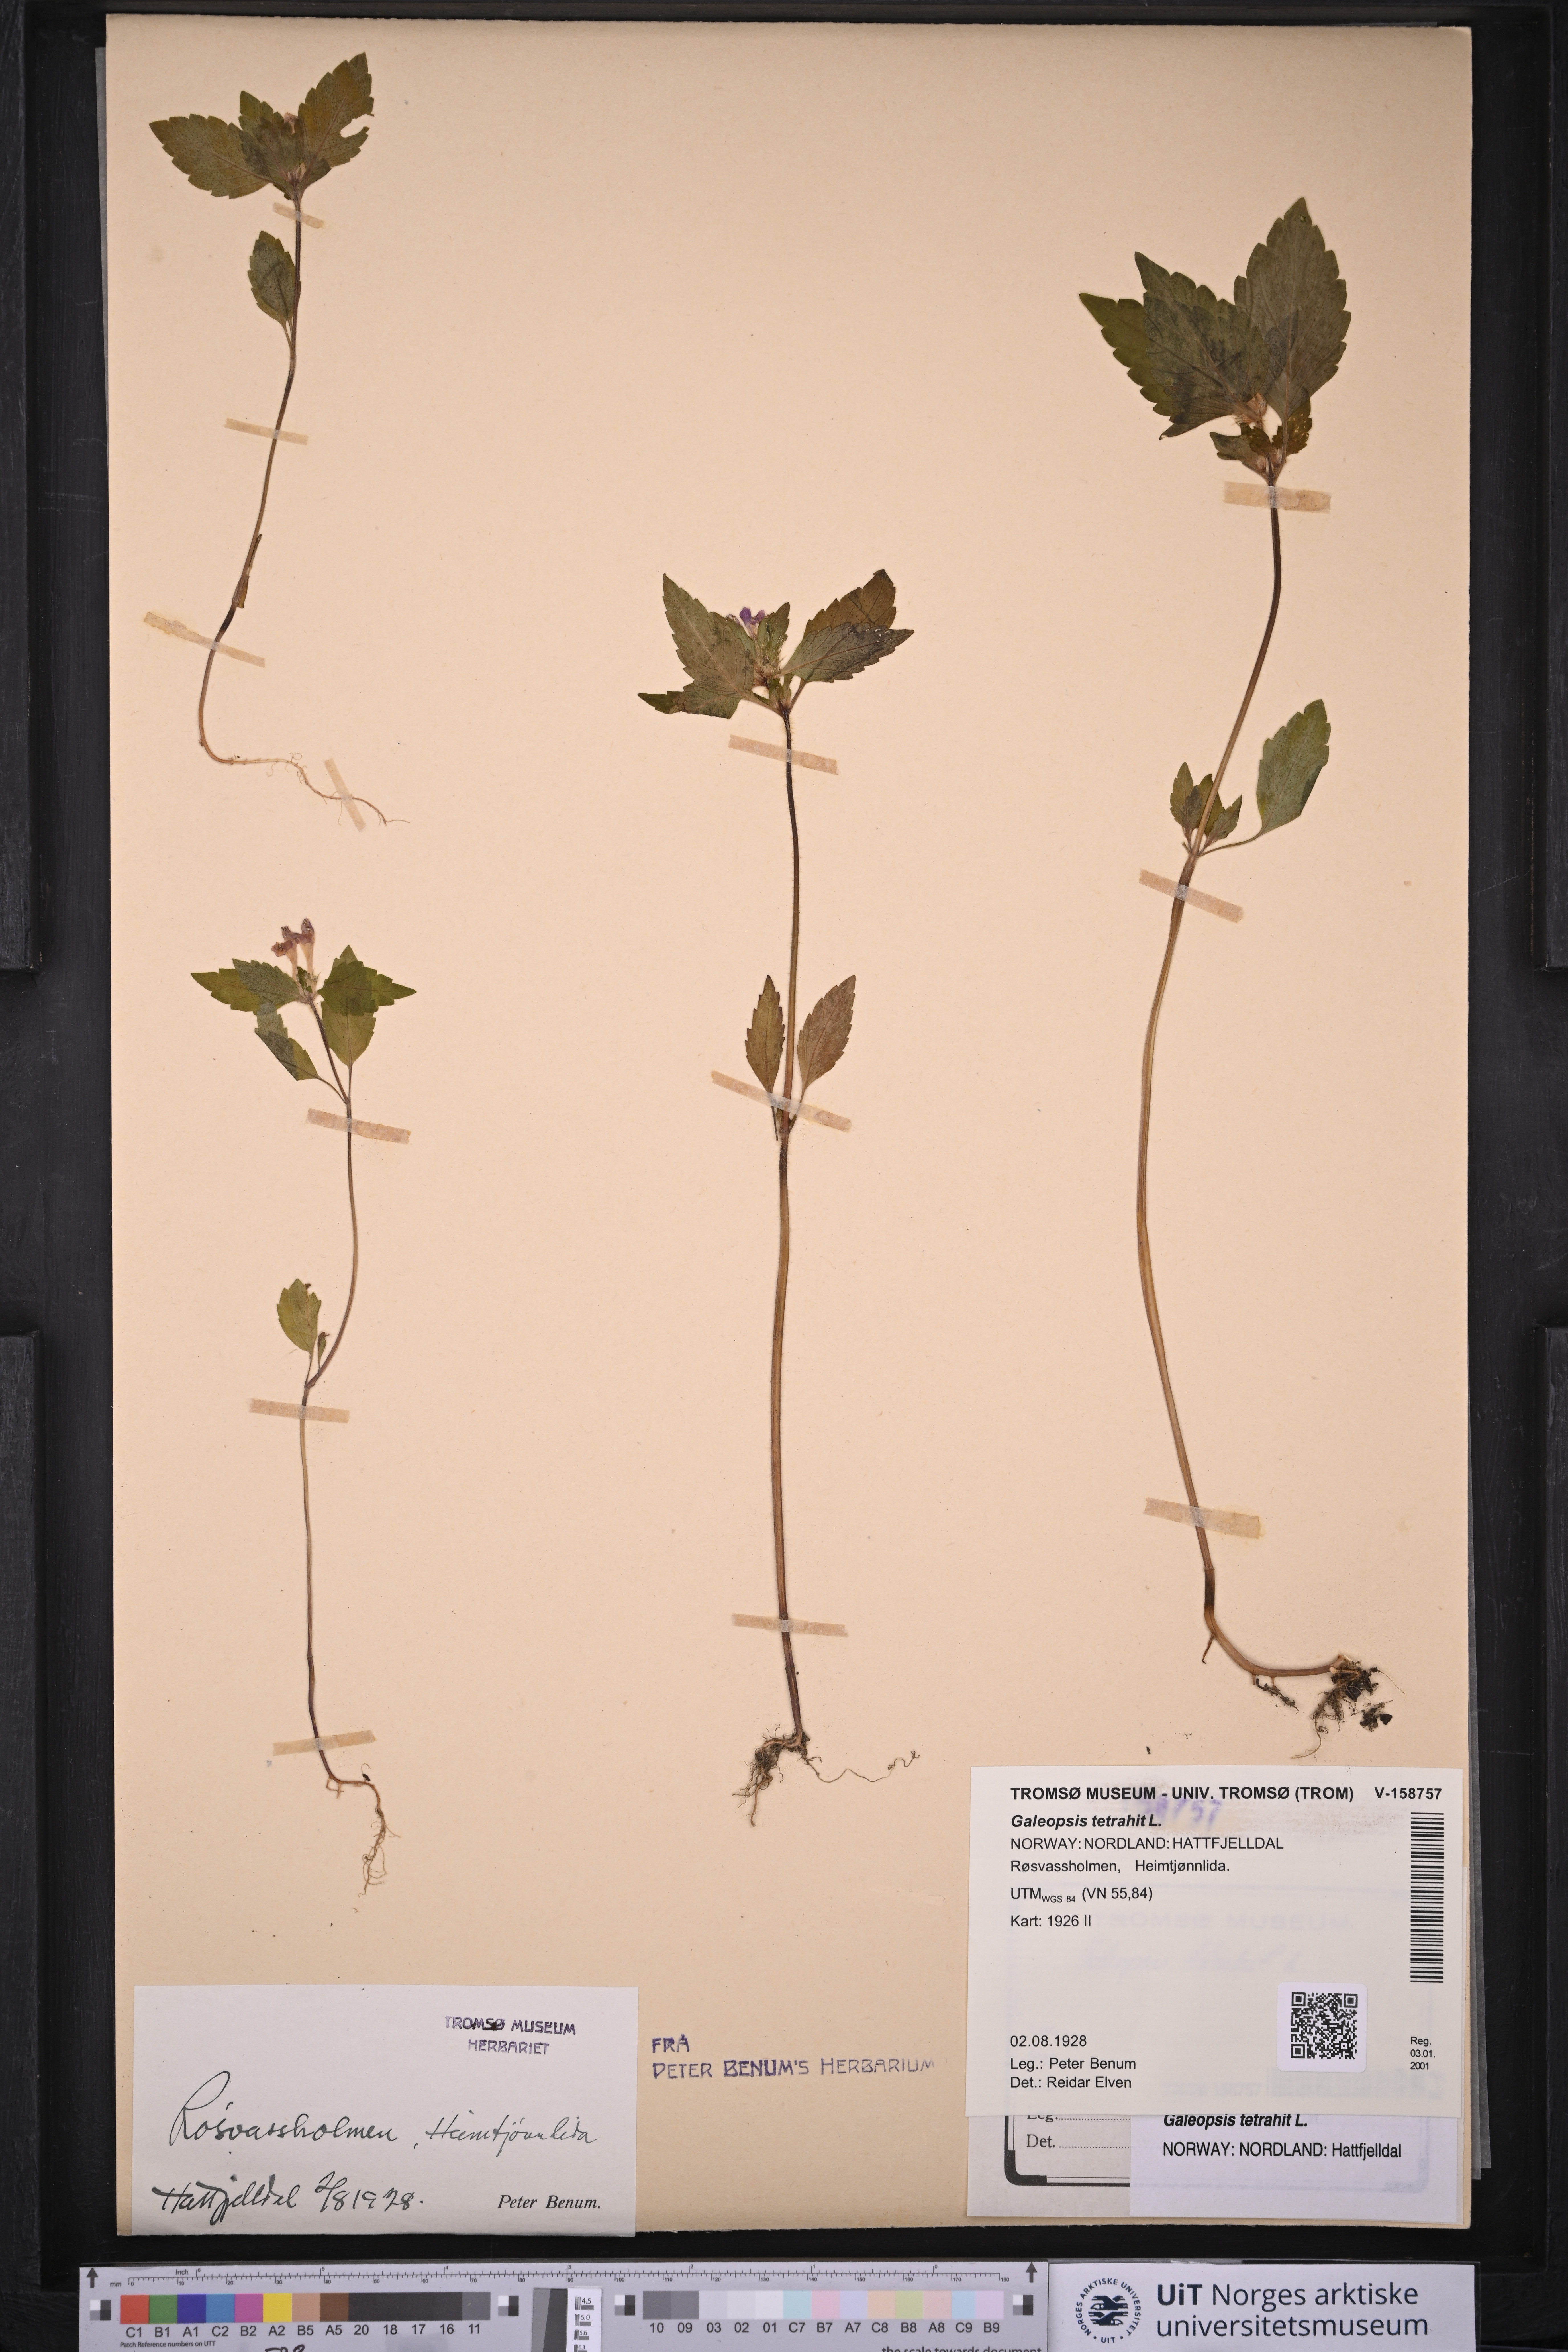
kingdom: Plantae
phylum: Tracheophyta
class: Magnoliopsida
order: Lamiales
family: Lamiaceae
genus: Galeopsis
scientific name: Galeopsis tetrahit
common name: Common hemp-nettle
